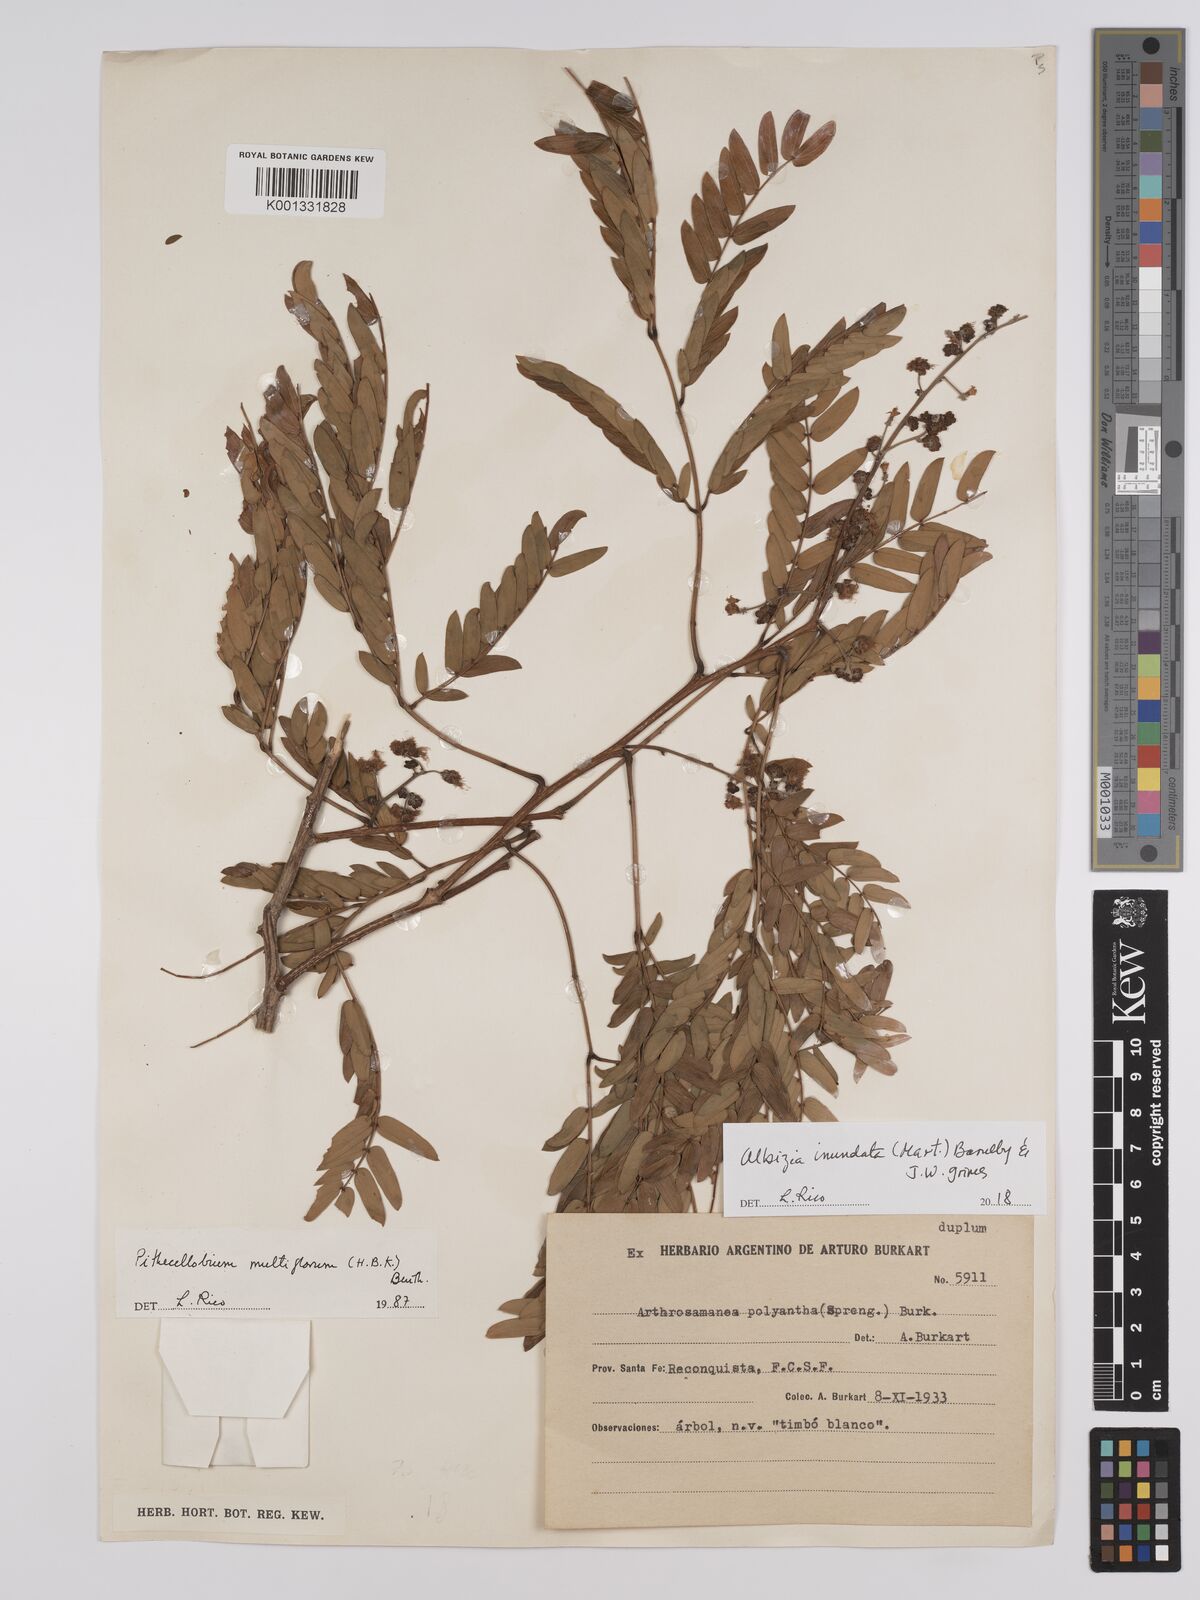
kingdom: Plantae
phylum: Tracheophyta
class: Magnoliopsida
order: Fabales
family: Fabaceae
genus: Albizia
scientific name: Albizia inundata
